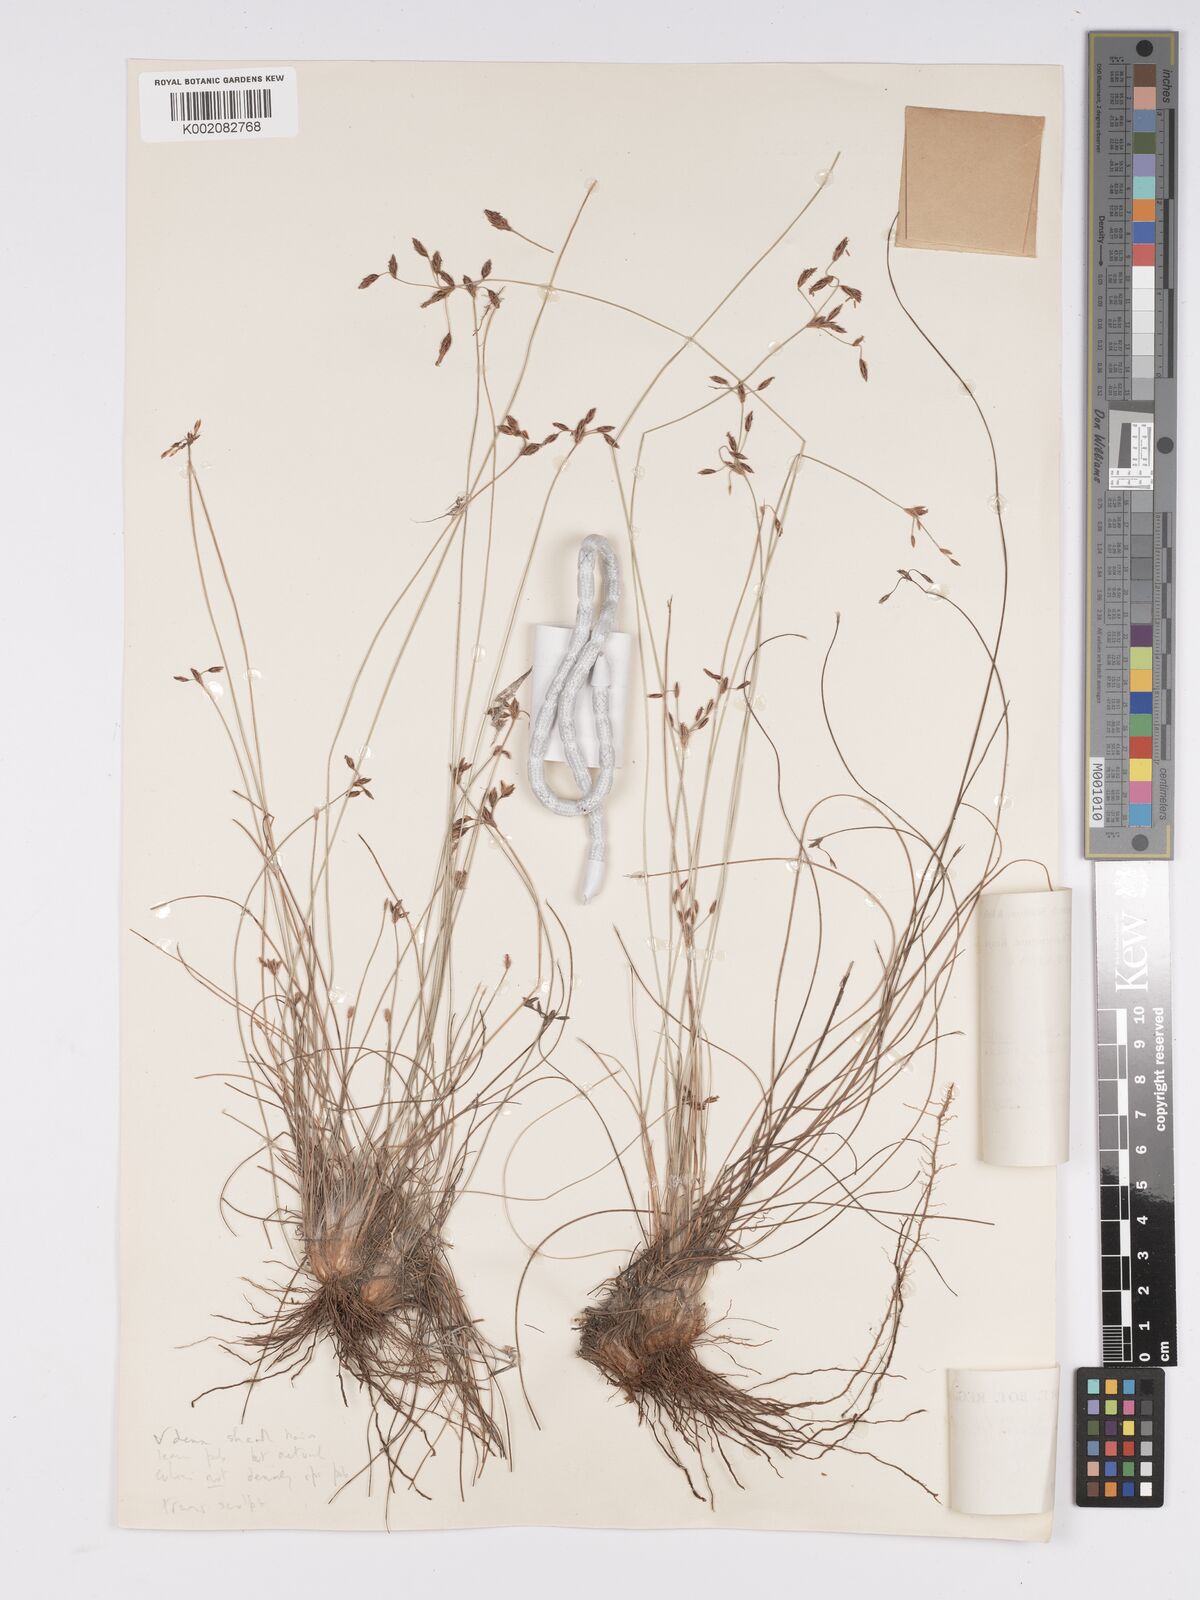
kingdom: Plantae
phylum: Tracheophyta
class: Liliopsida
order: Poales
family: Cyperaceae
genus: Bulbostylis
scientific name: Bulbostylis hispidula
